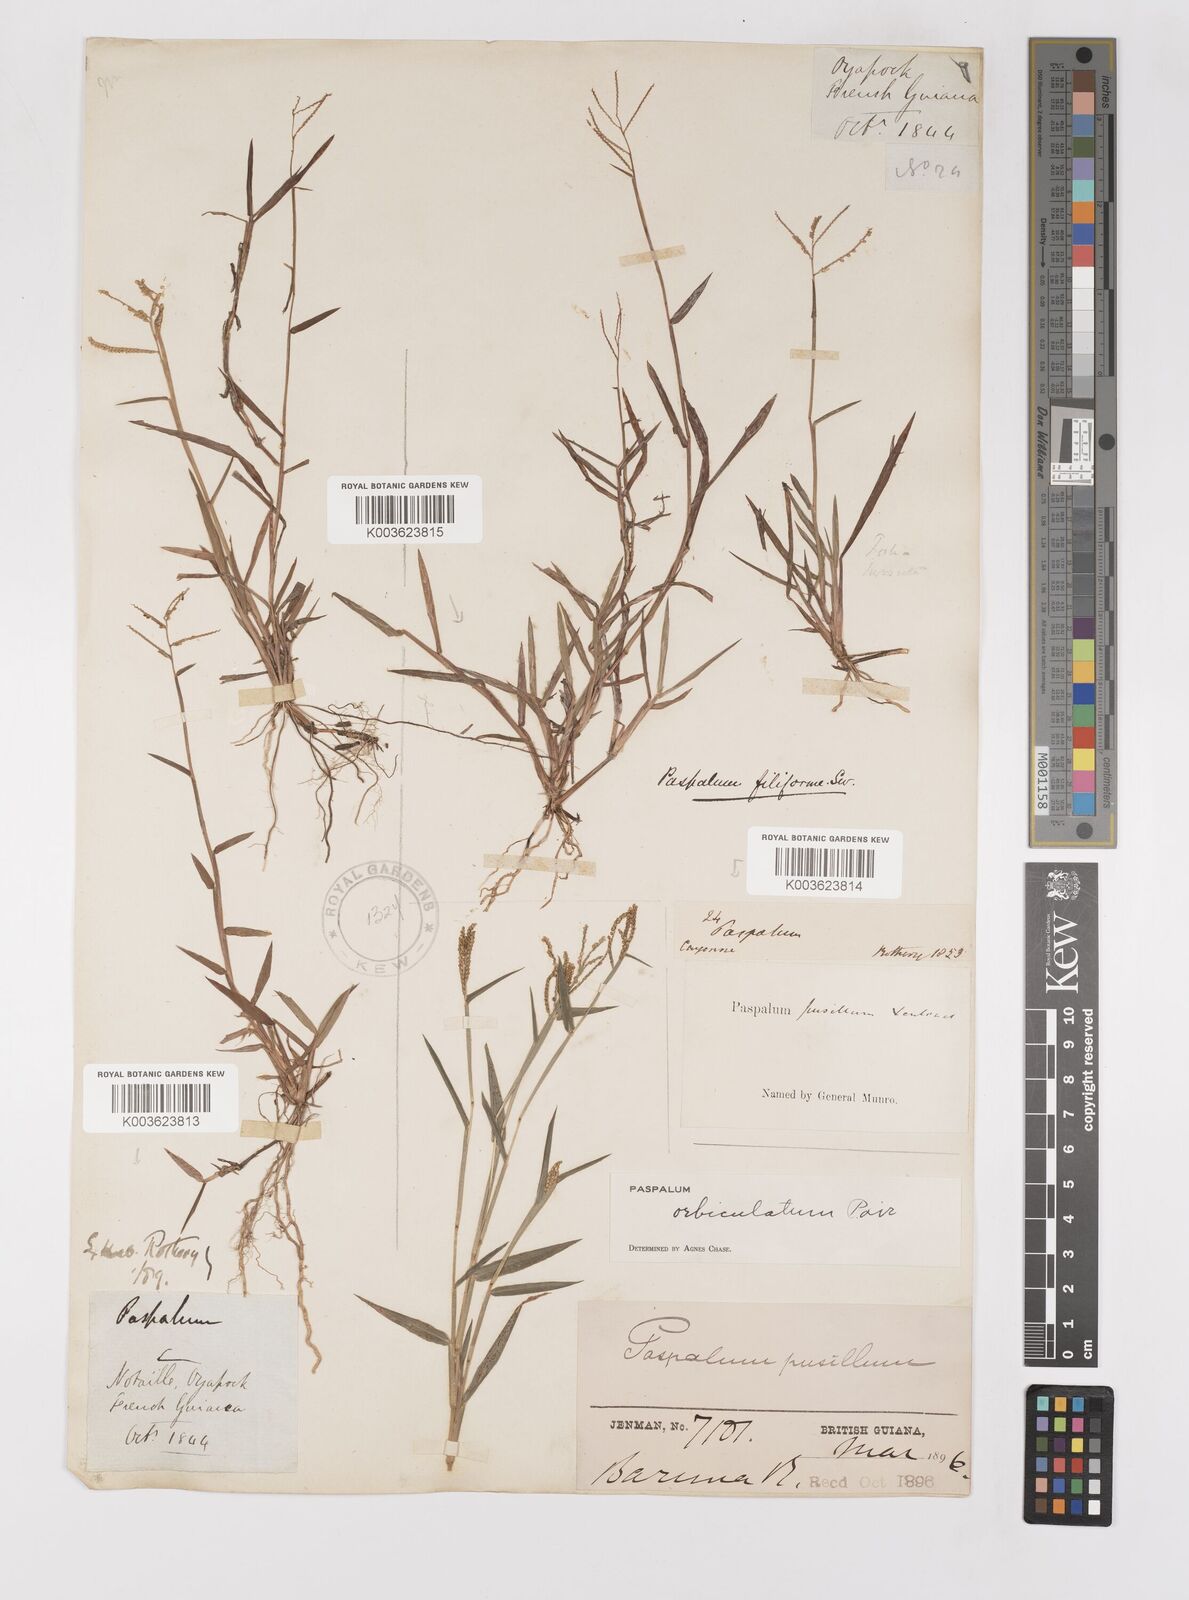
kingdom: Plantae
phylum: Tracheophyta
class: Liliopsida
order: Poales
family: Poaceae
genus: Paspalum
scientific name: Paspalum orbiculatum
